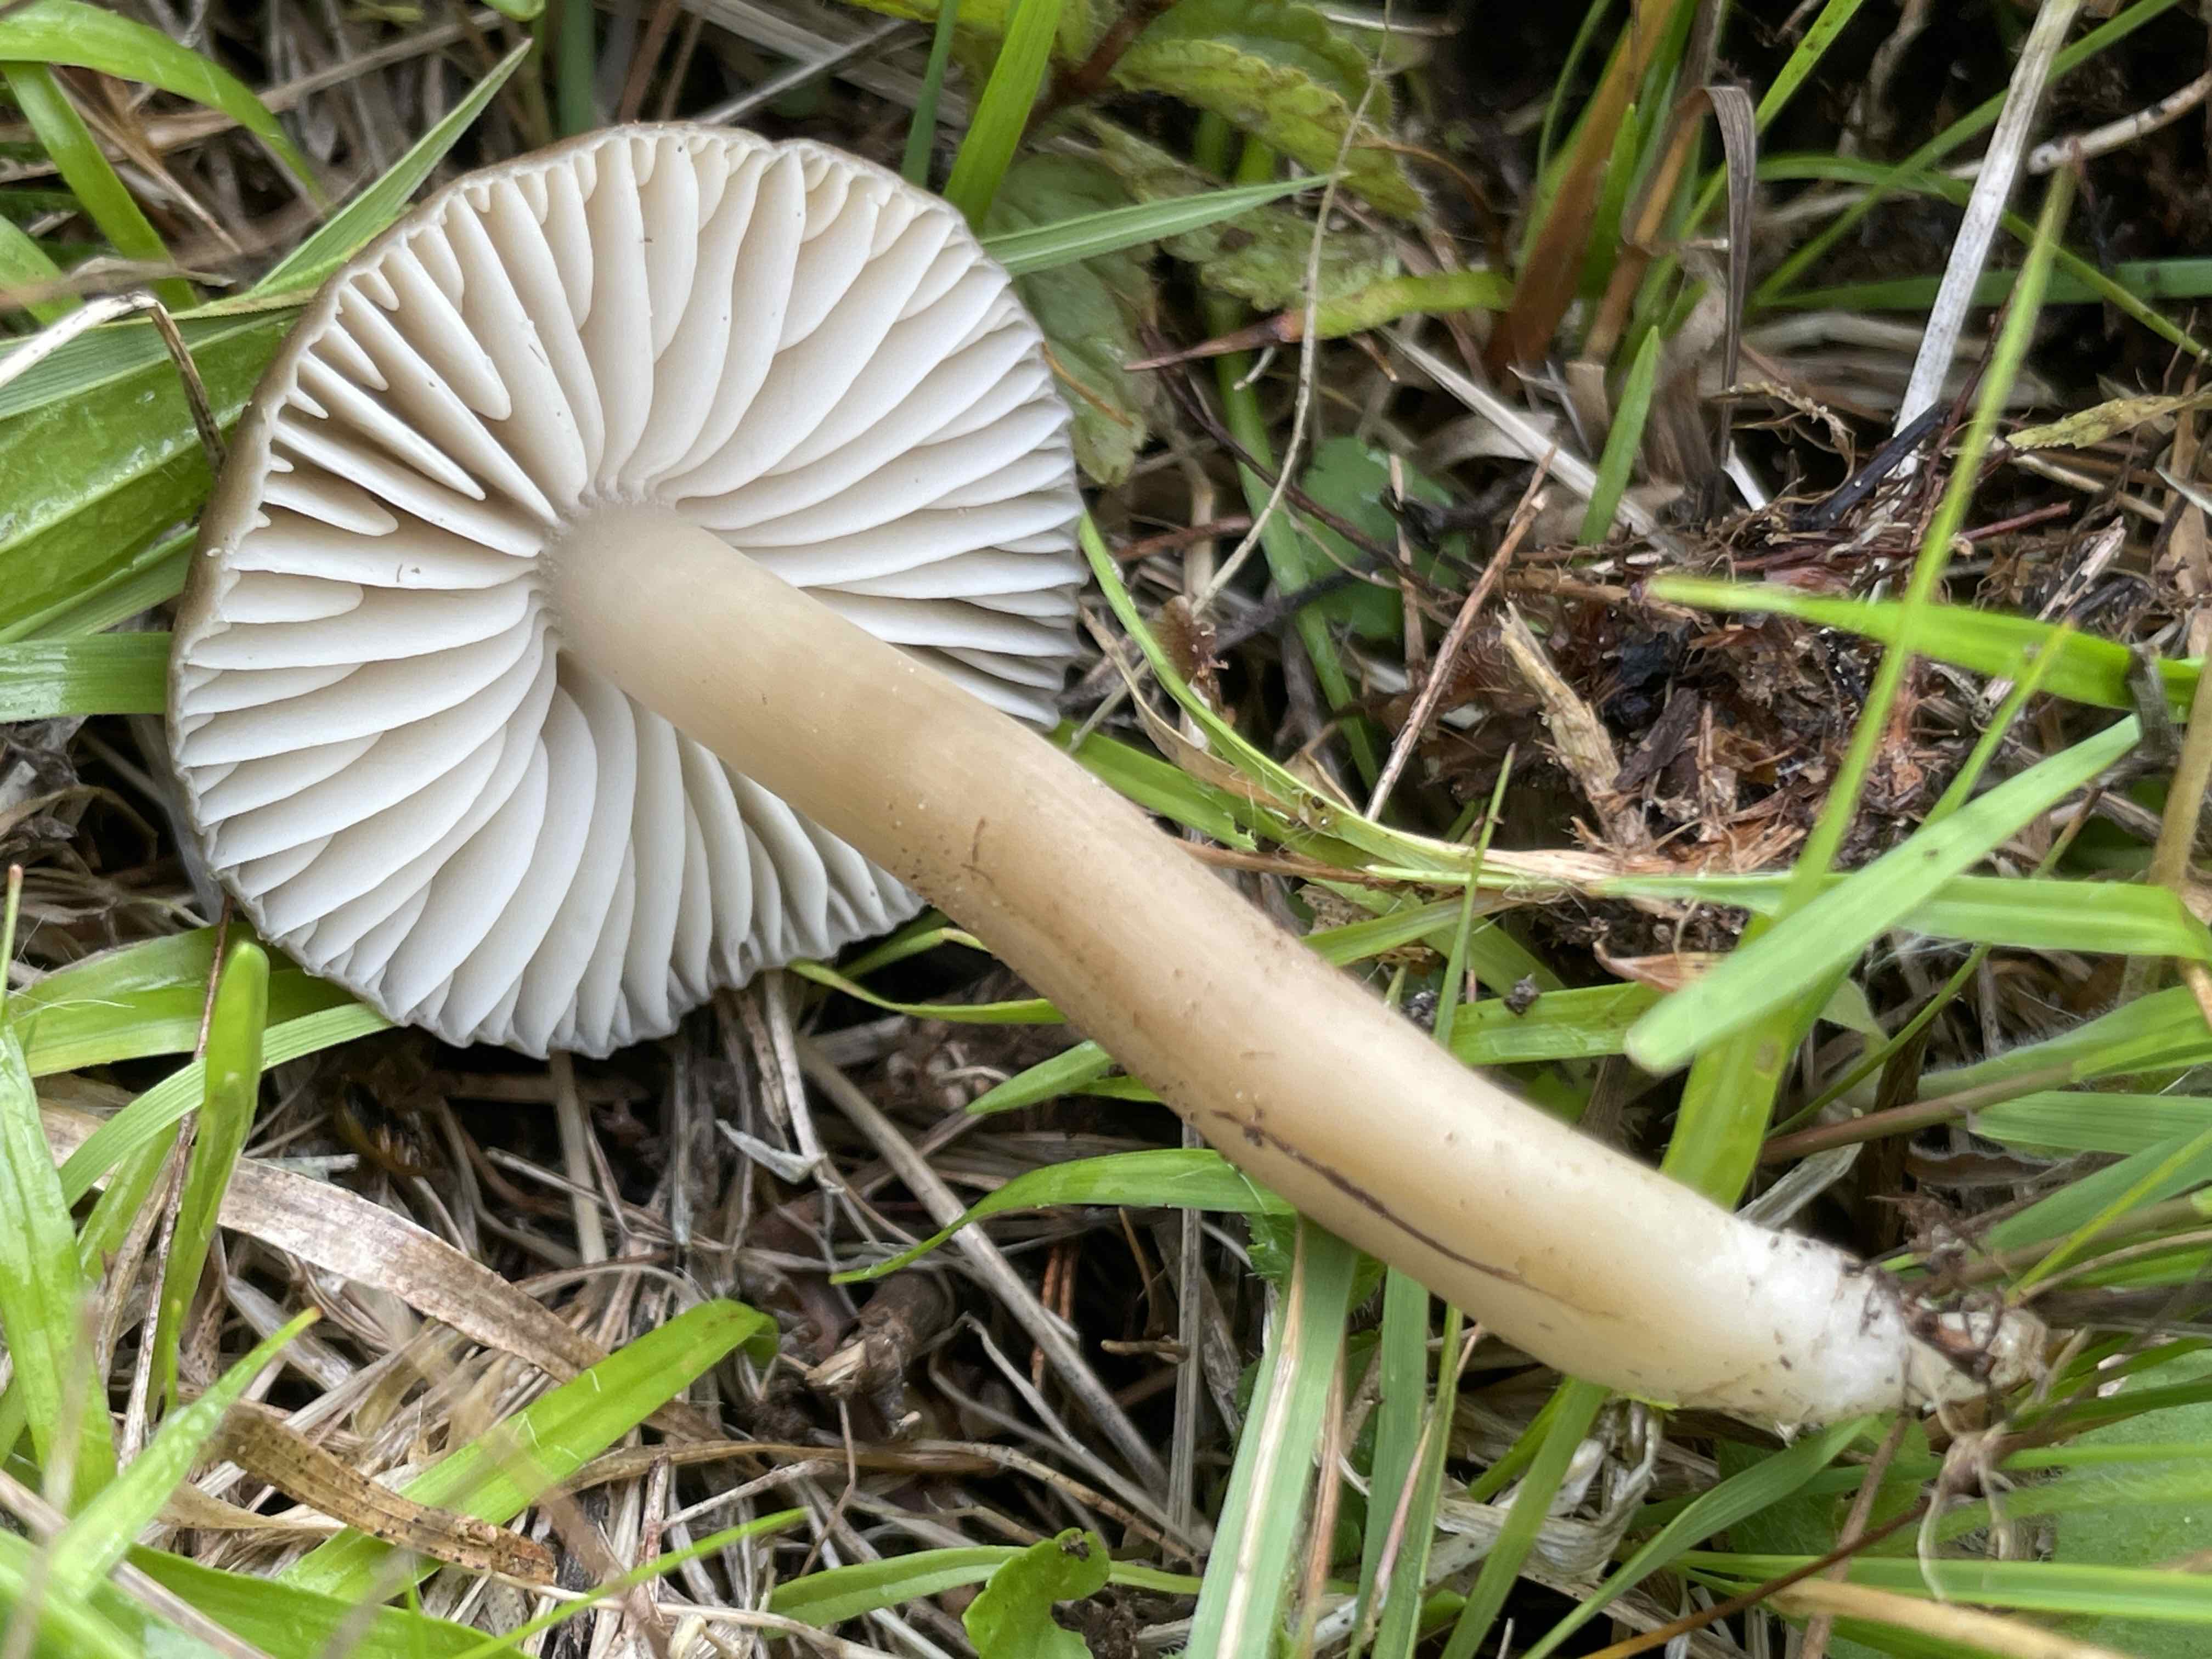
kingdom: Fungi
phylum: Basidiomycota
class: Agaricomycetes
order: Agaricales
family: Hygrophoraceae
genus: Neohygrocybe
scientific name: Neohygrocybe nitrata
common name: stinkende vokshat
